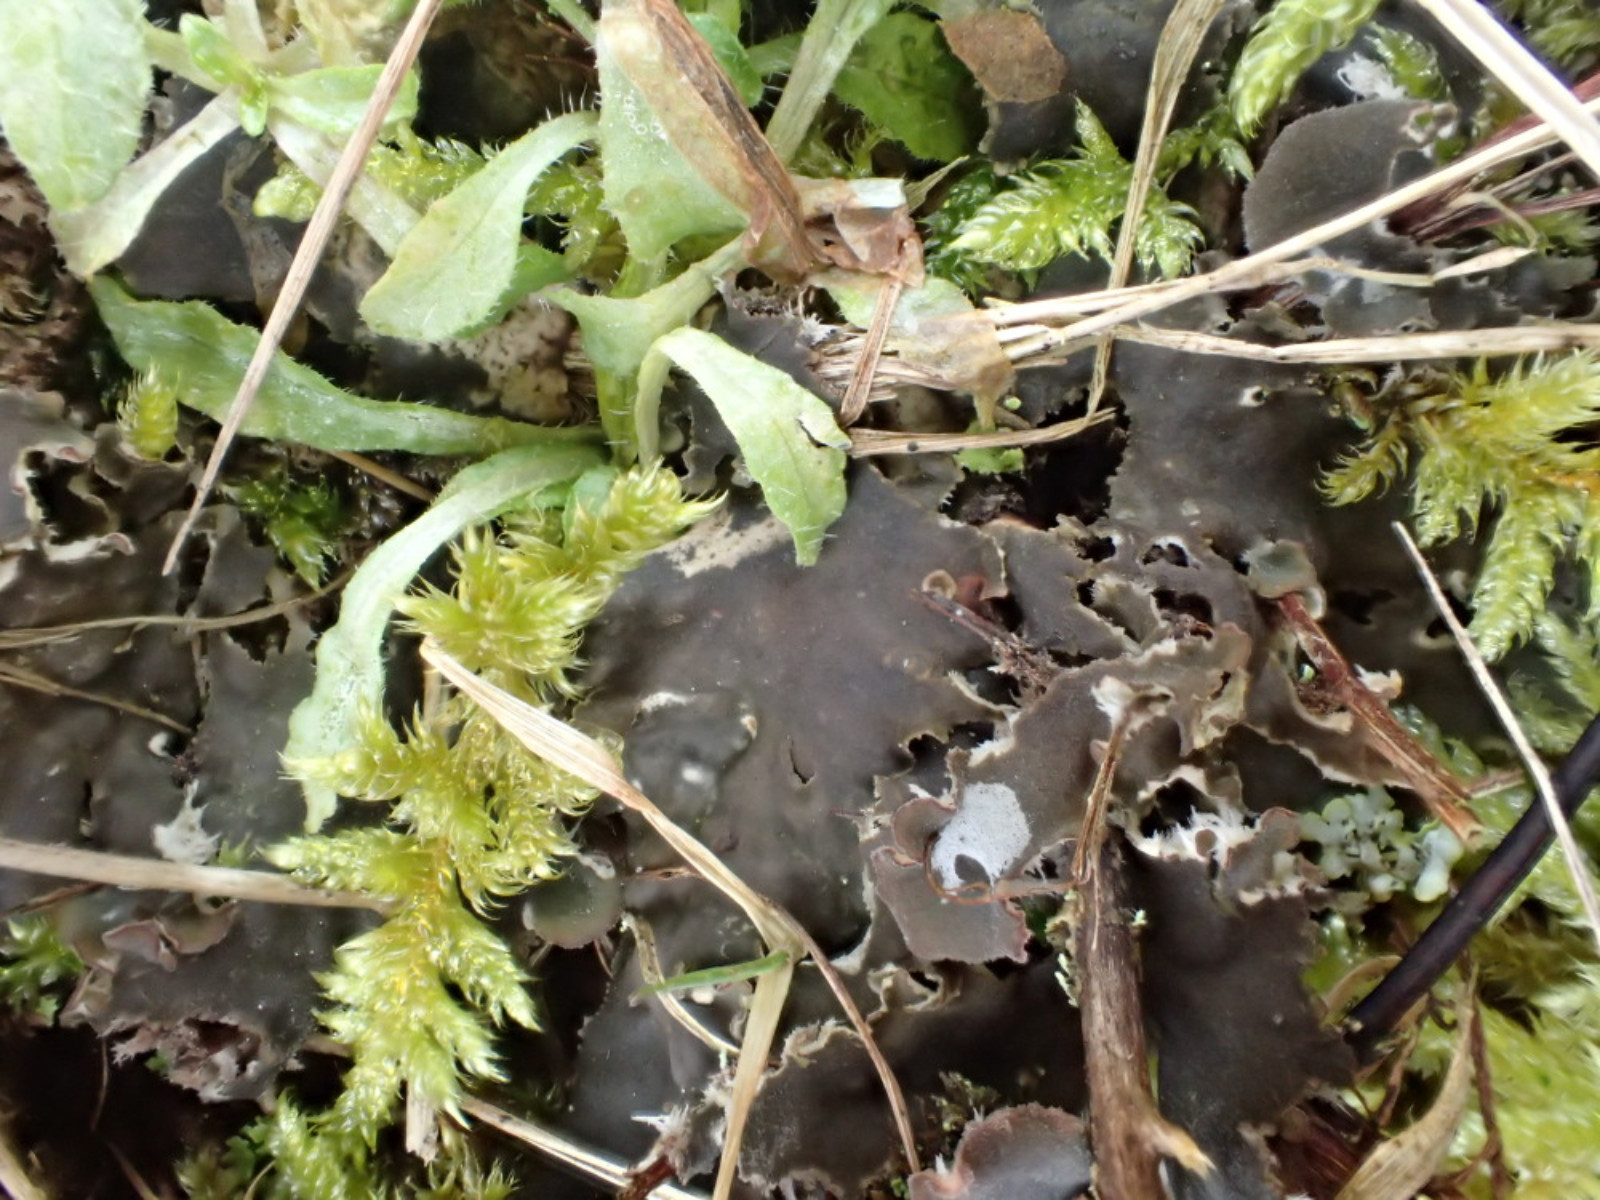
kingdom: Fungi
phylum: Ascomycota
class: Lecanoromycetes
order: Peltigerales
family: Peltigeraceae
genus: Peltigera
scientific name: Peltigera membranacea
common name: tynd skjoldlav
